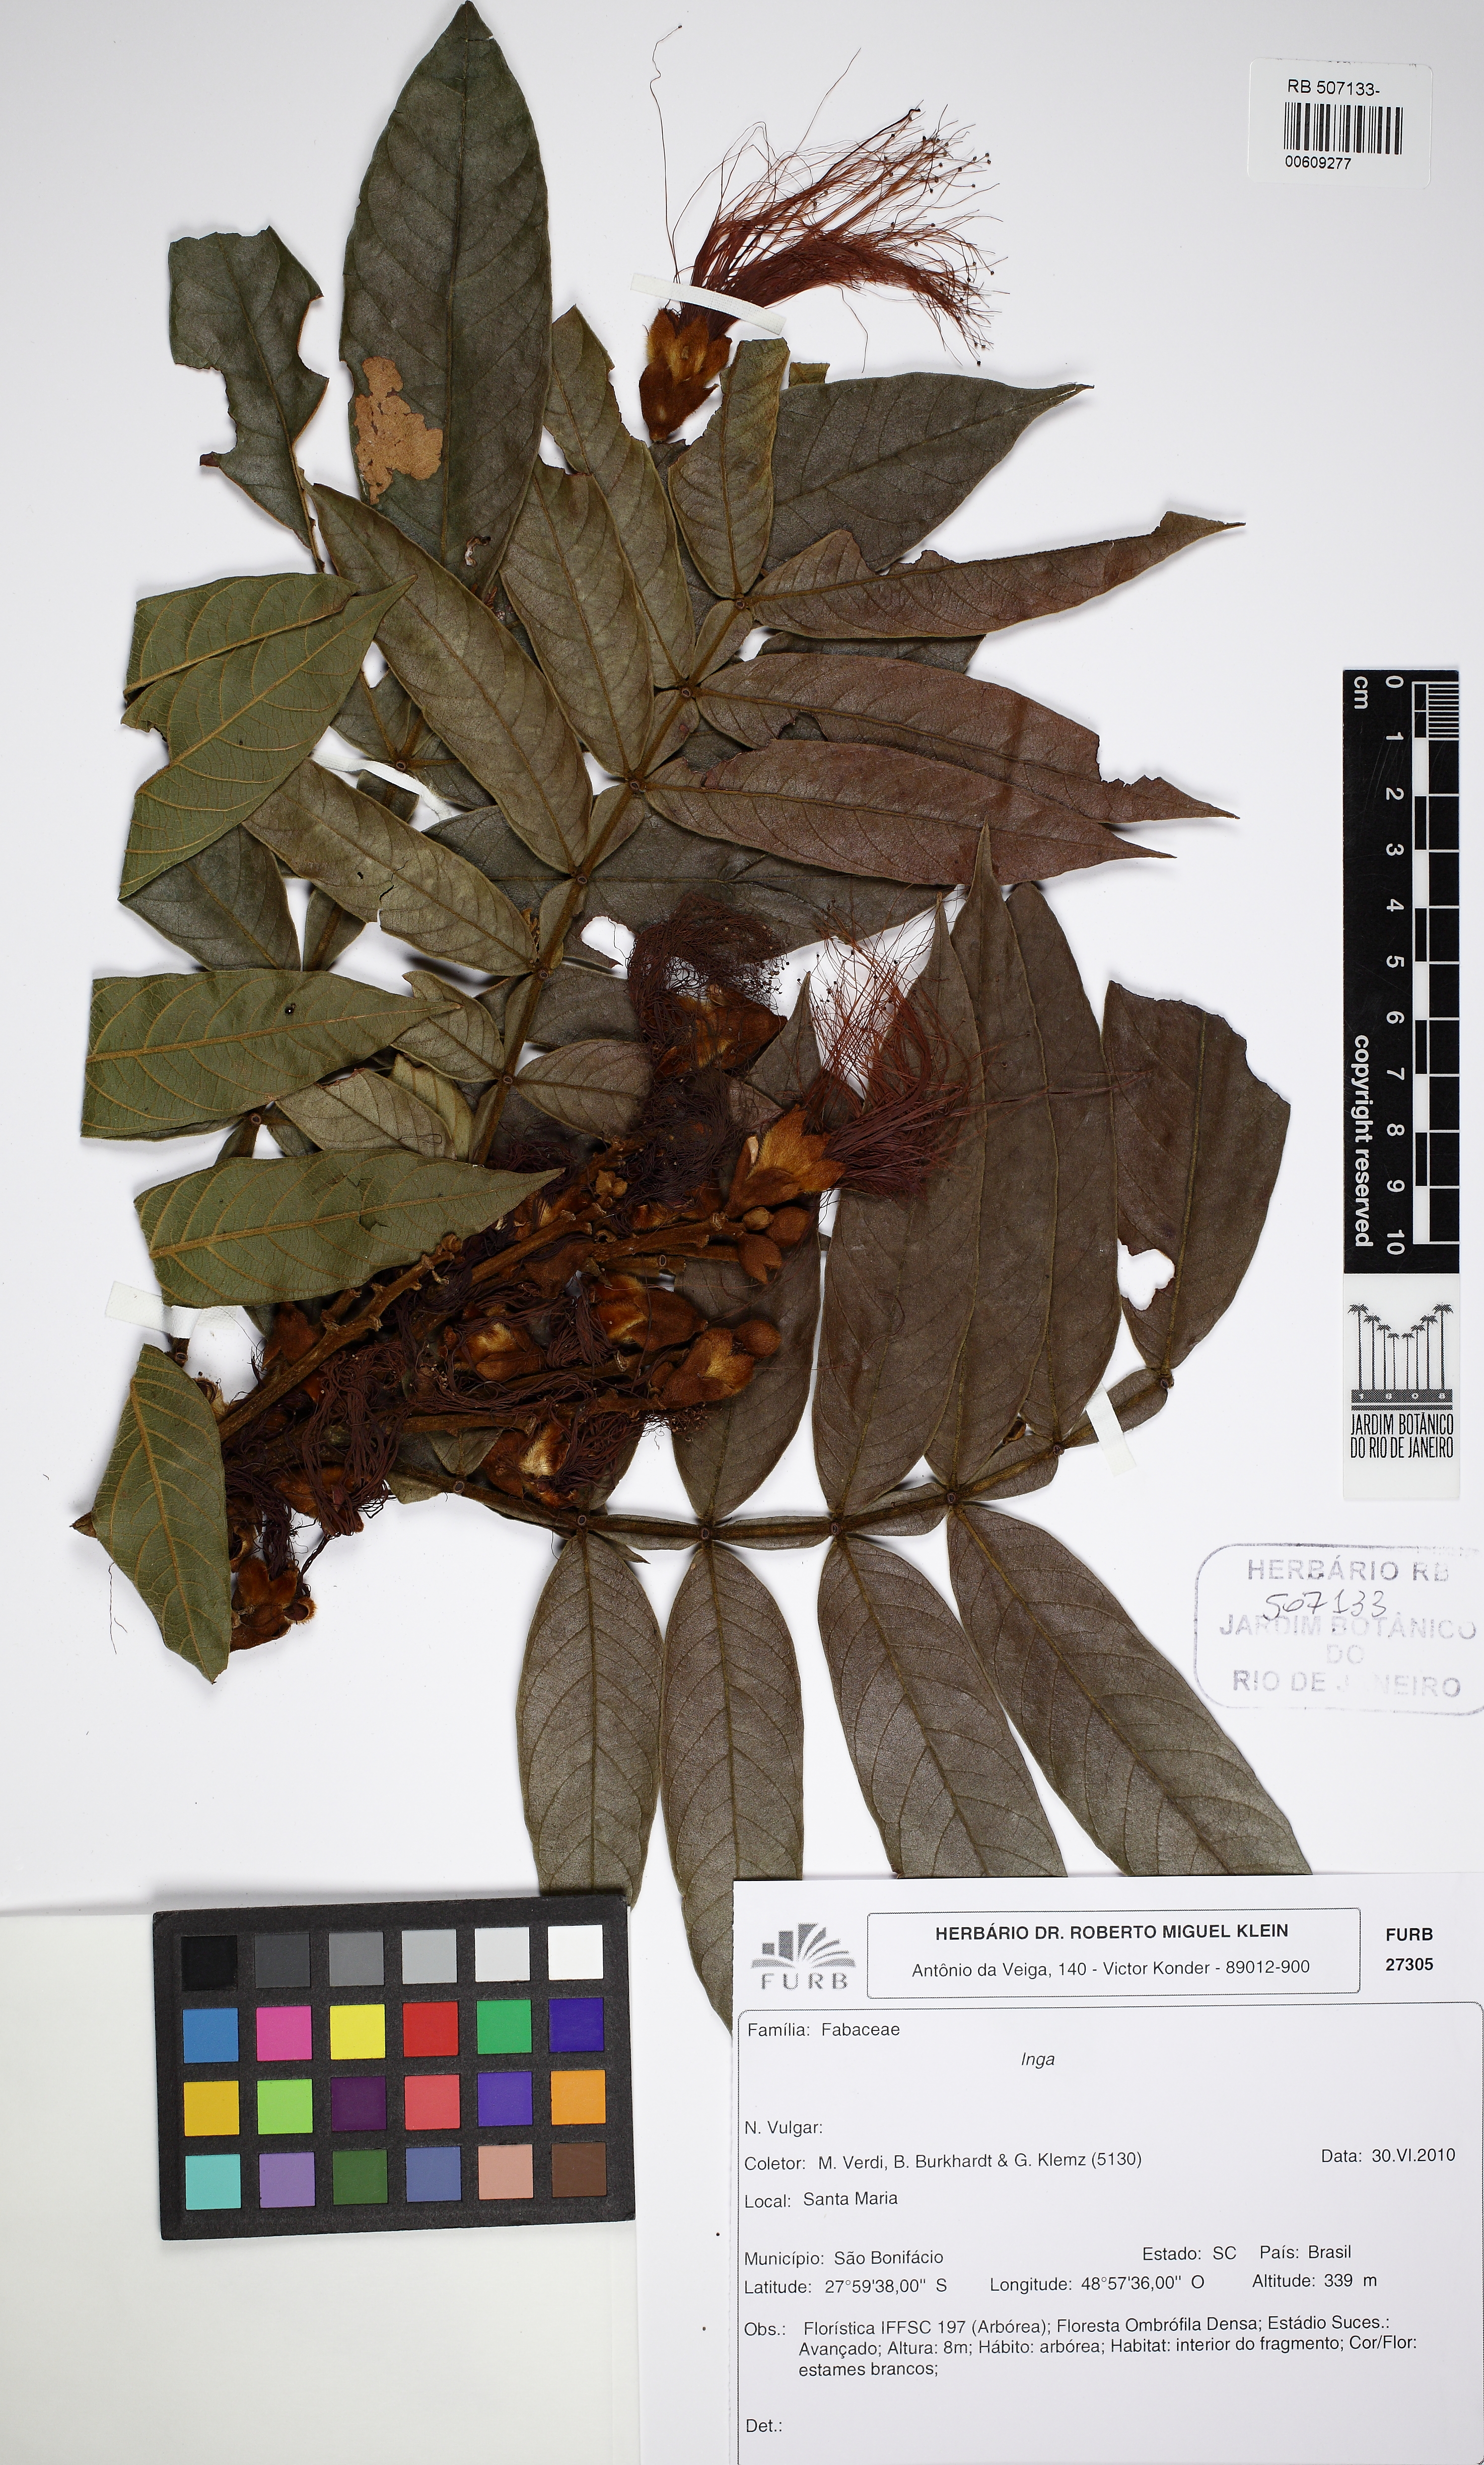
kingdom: Plantae
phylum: Tracheophyta
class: Magnoliopsida
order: Fabales
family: Fabaceae
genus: Inga
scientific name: Inga sessilis
